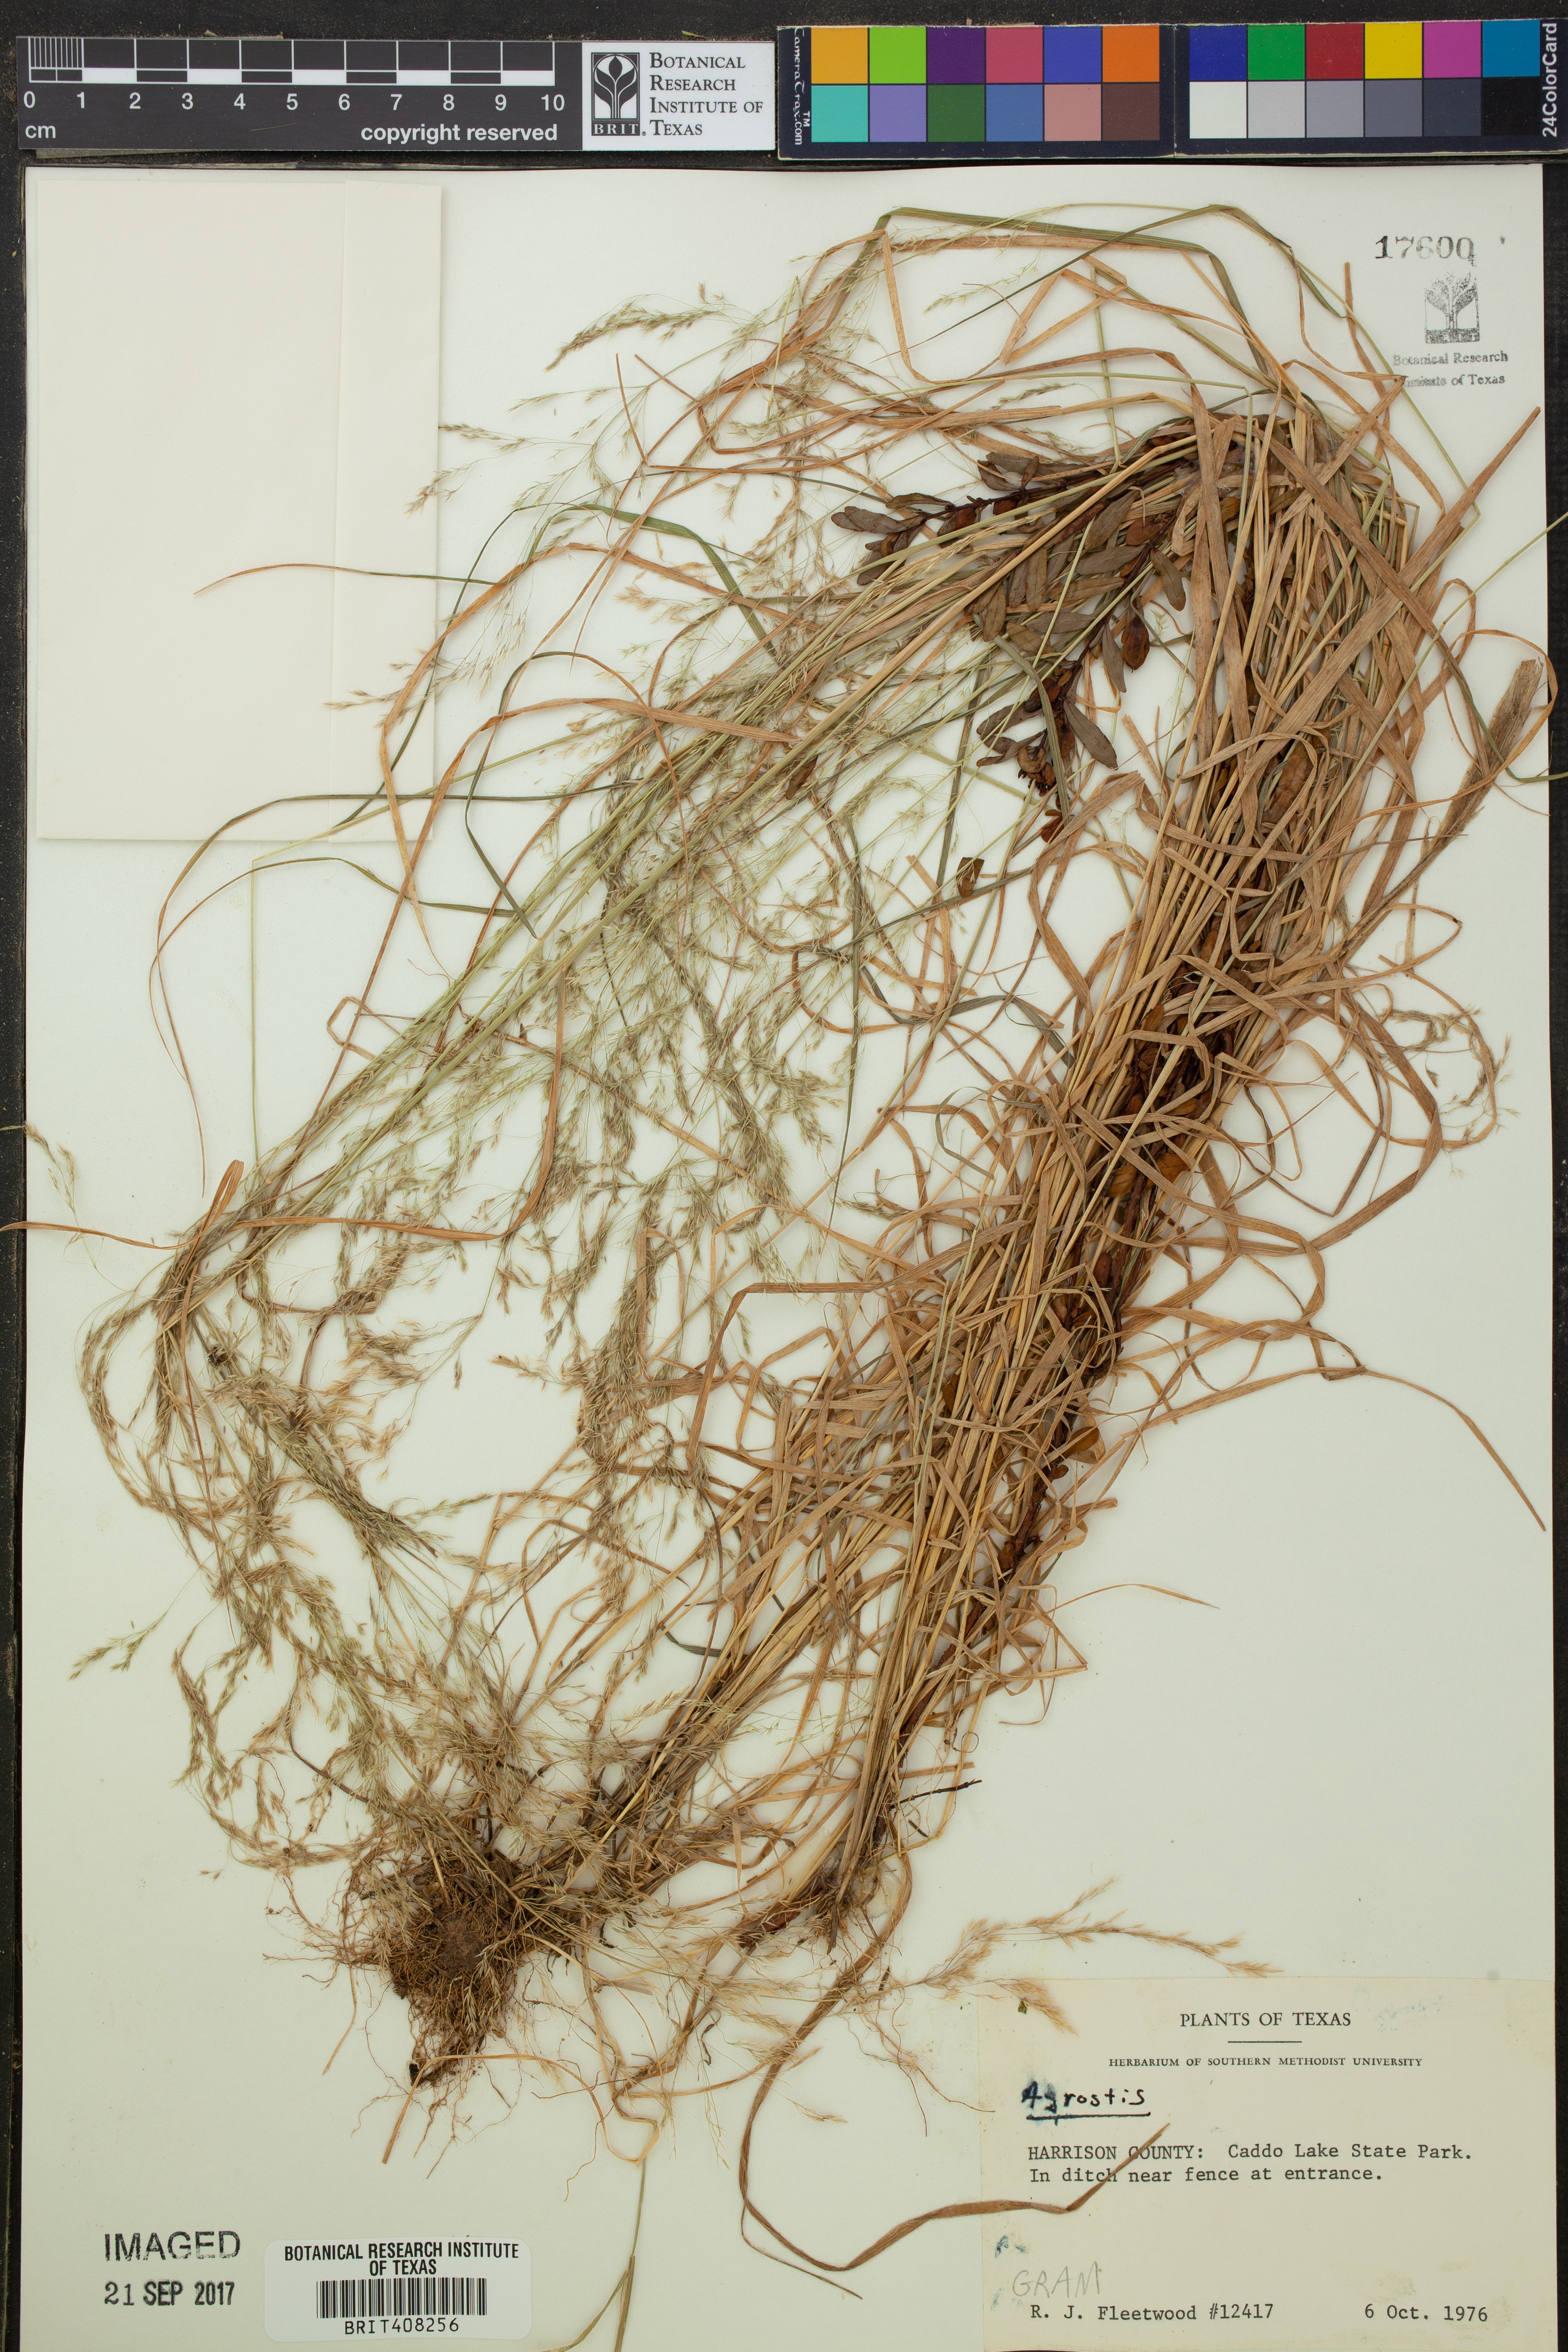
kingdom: Plantae
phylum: Tracheophyta
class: Liliopsida
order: Poales
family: Poaceae
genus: Agrostis
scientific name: Agrostis
